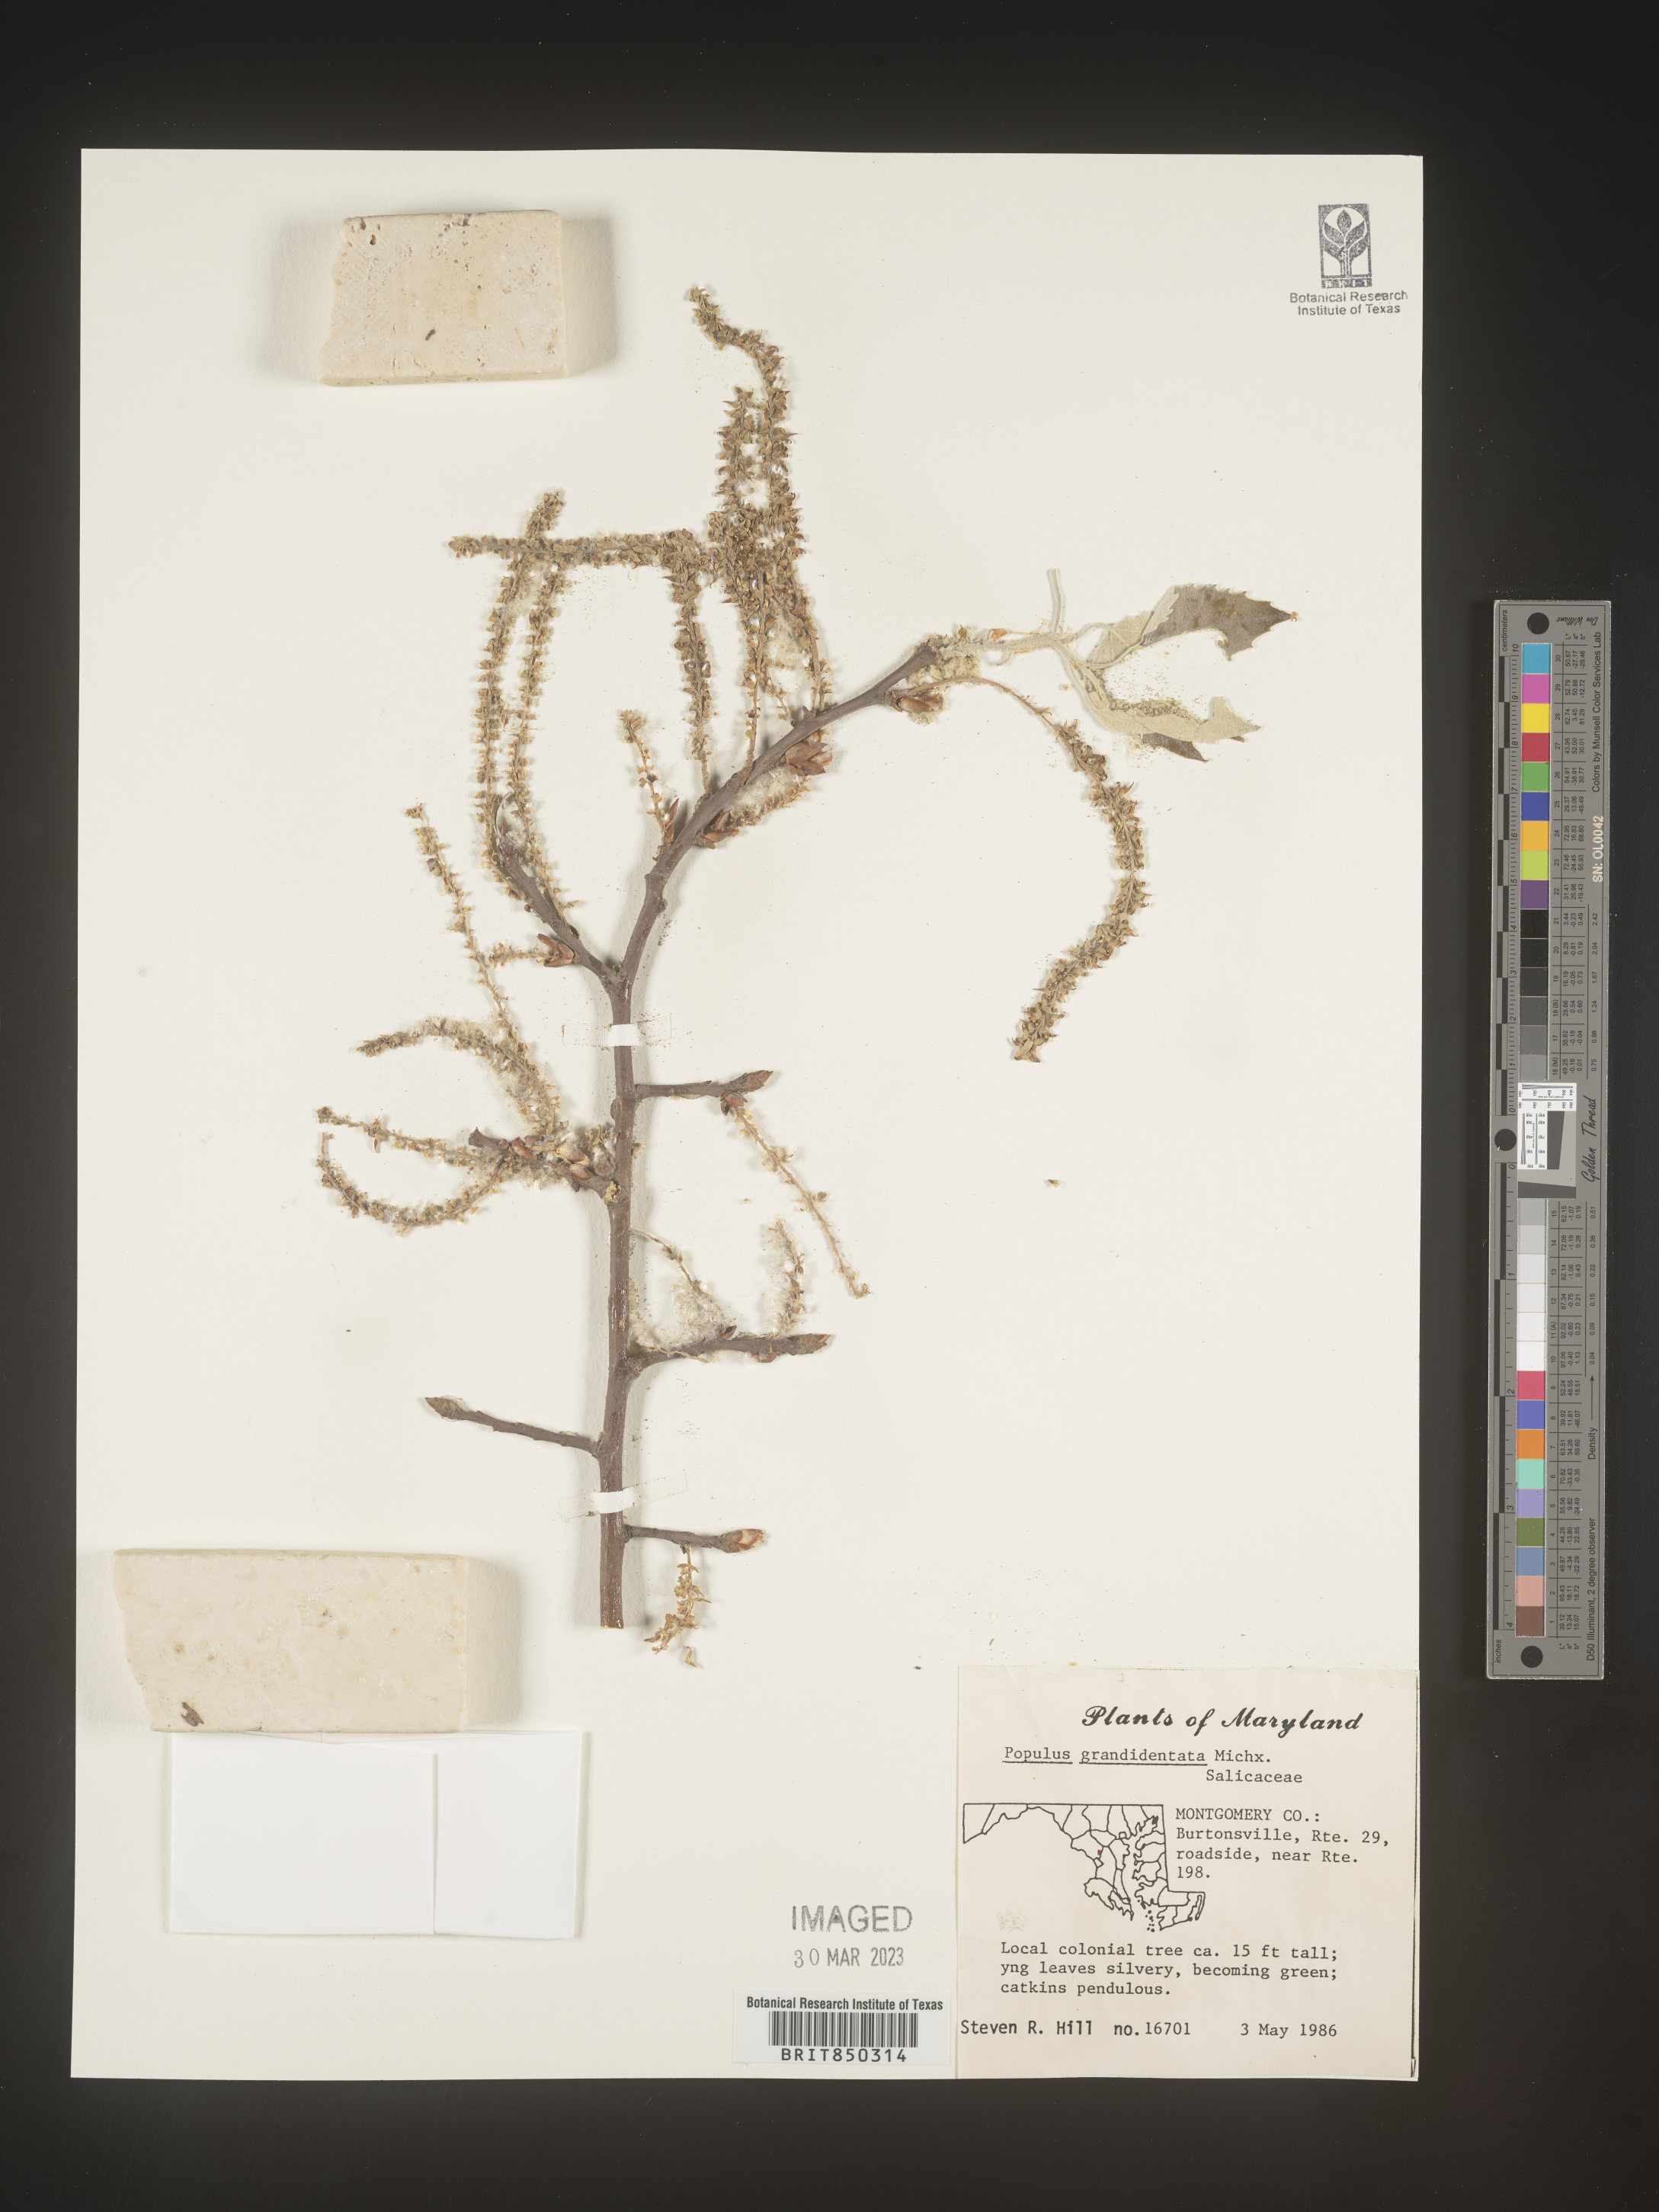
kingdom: Plantae
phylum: Tracheophyta
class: Magnoliopsida
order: Malpighiales
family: Salicaceae
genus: Populus
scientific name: Populus grandidentata
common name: Bigtooth aspen
